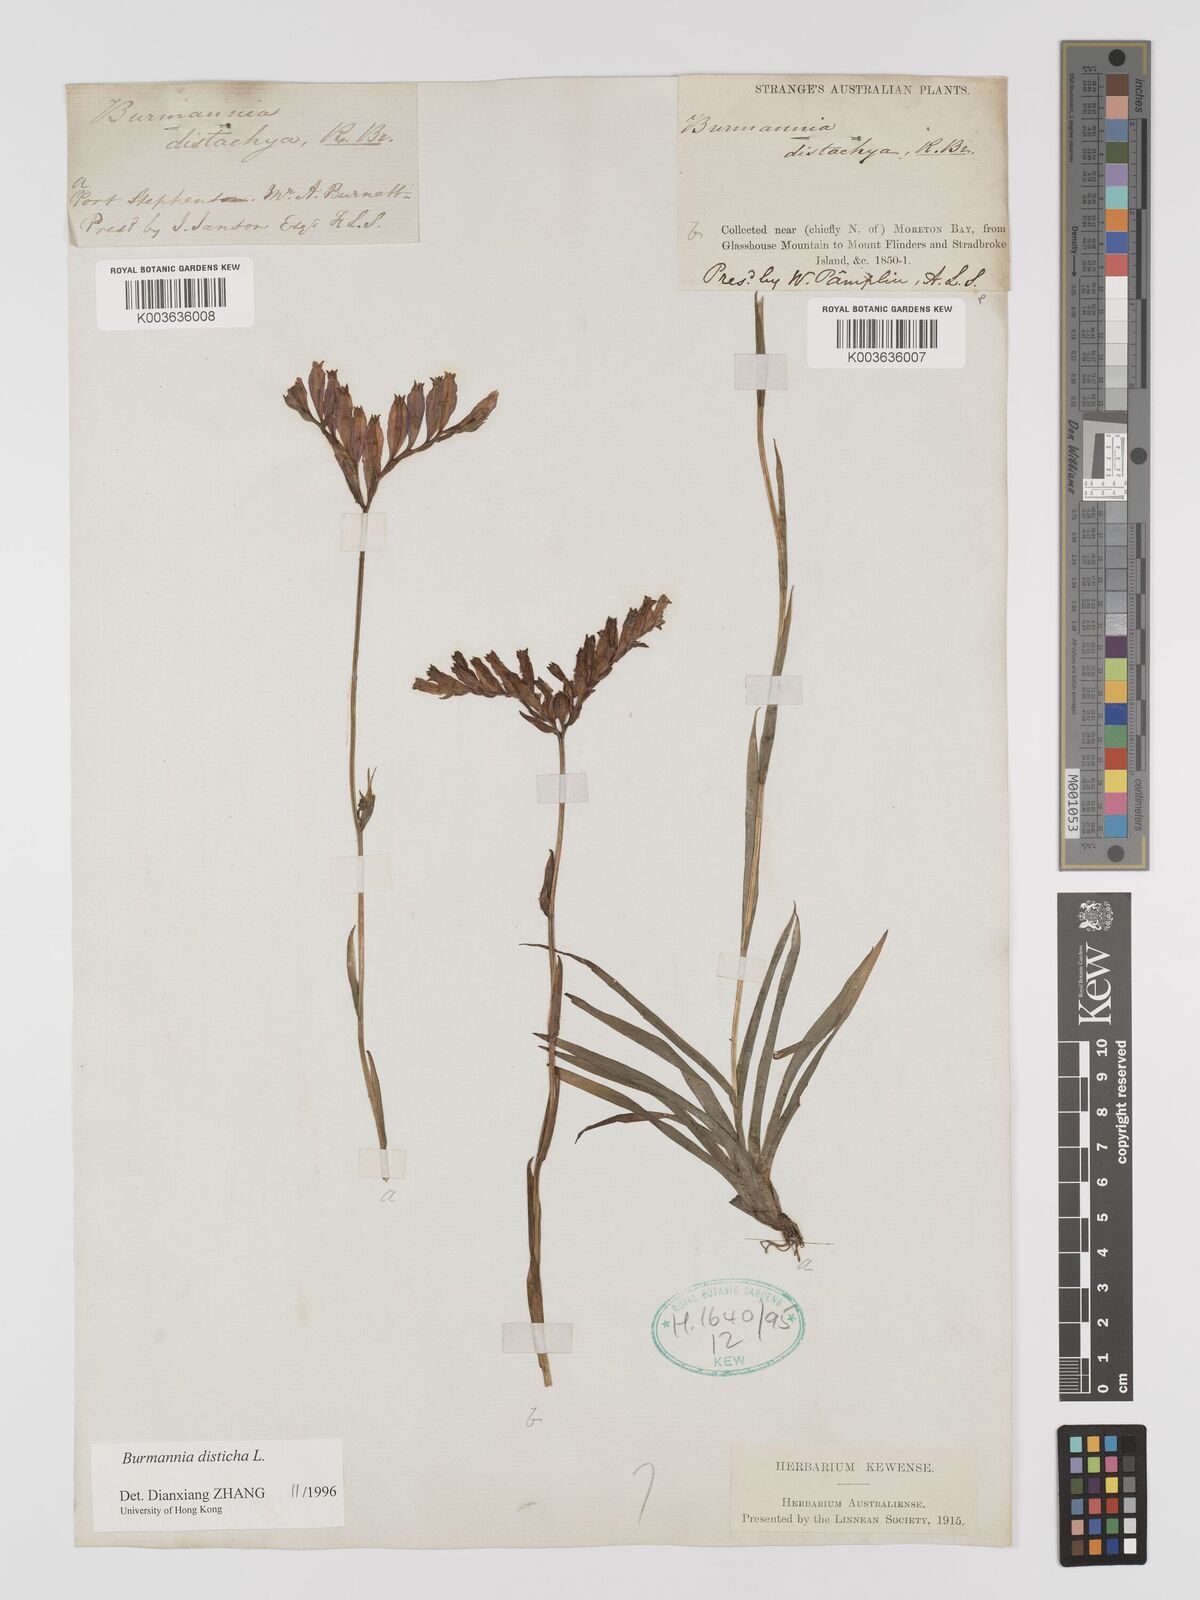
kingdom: Plantae
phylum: Tracheophyta
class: Liliopsida
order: Dioscoreales
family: Burmanniaceae
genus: Burmannia
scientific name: Burmannia disticha
